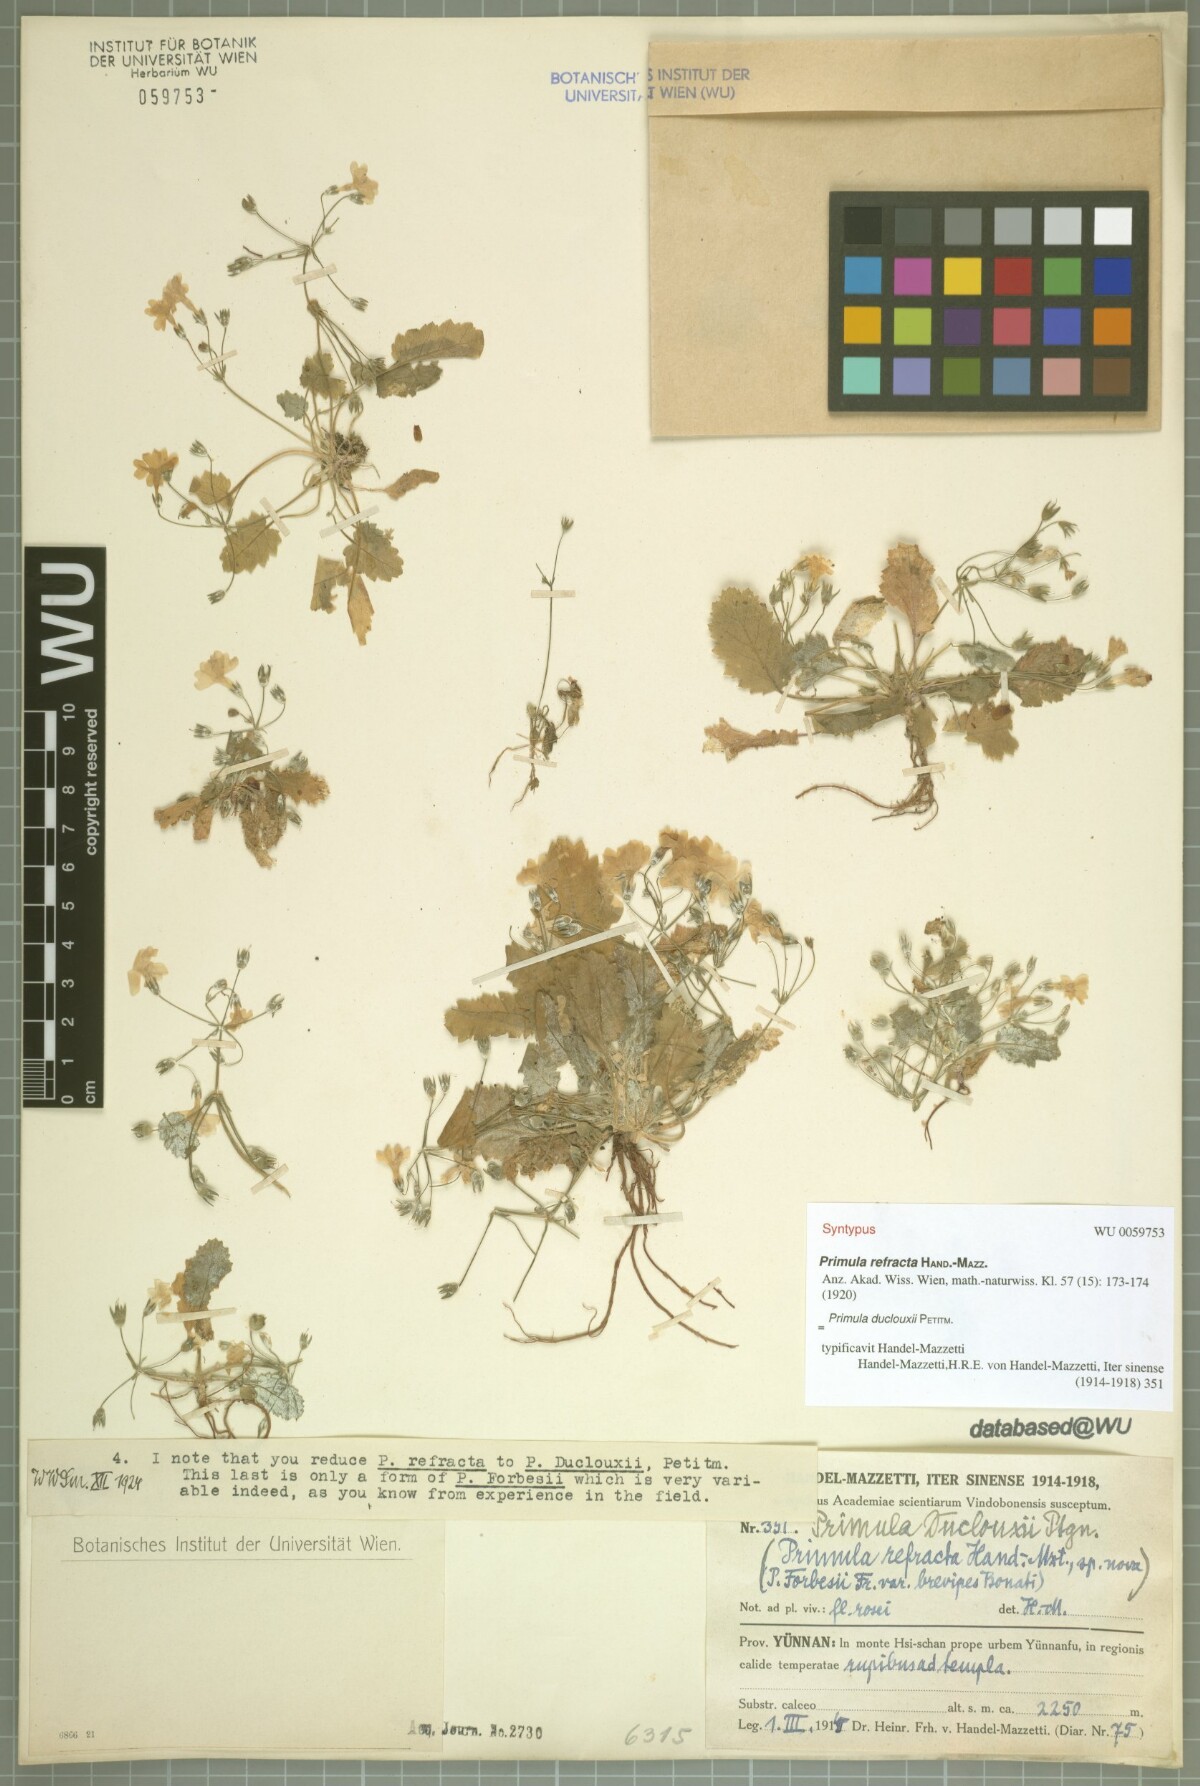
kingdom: Plantae
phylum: Tracheophyta
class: Magnoliopsida
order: Ericales
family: Primulaceae
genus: Primula
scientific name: Primula duclouxii
